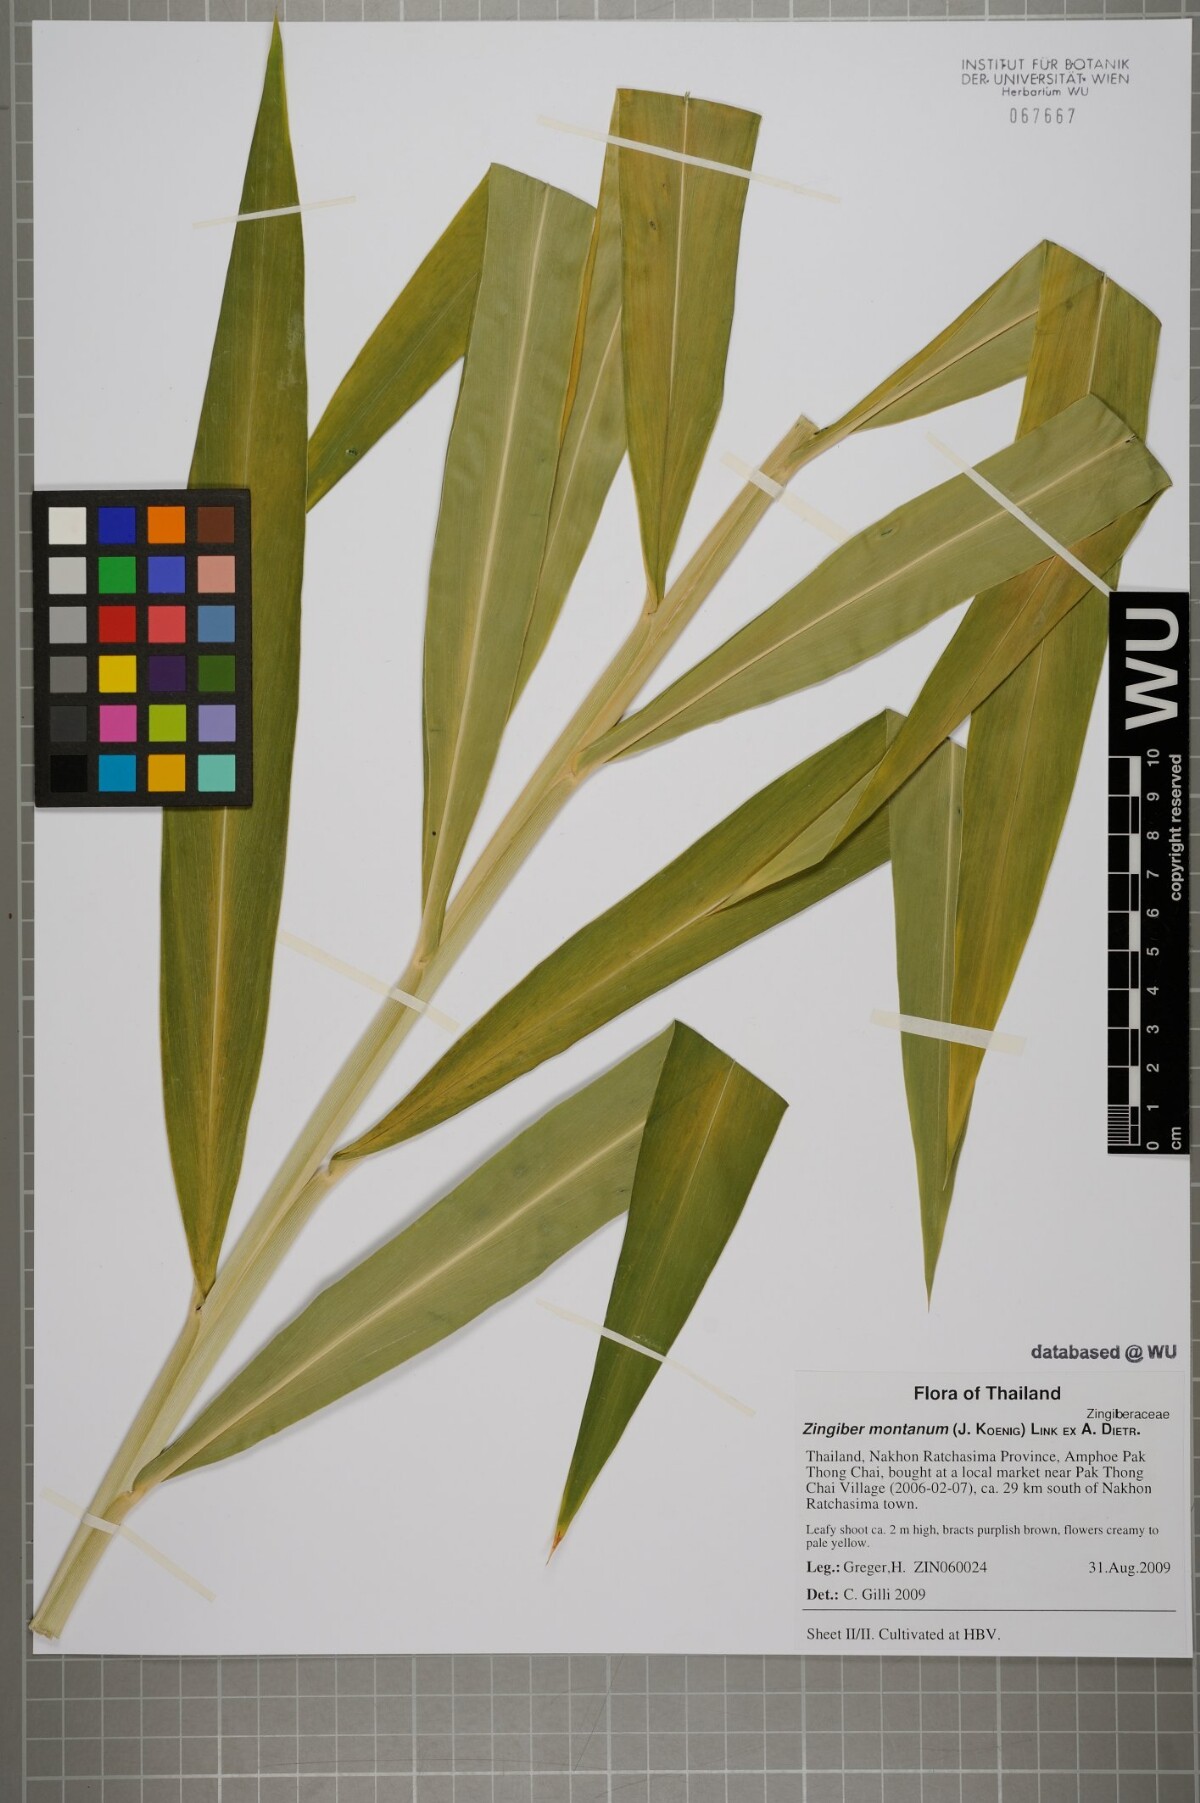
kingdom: Plantae
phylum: Tracheophyta
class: Liliopsida
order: Zingiberales
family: Zingiberaceae
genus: Zingiber
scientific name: Zingiber montanum
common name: Bengal ginger
